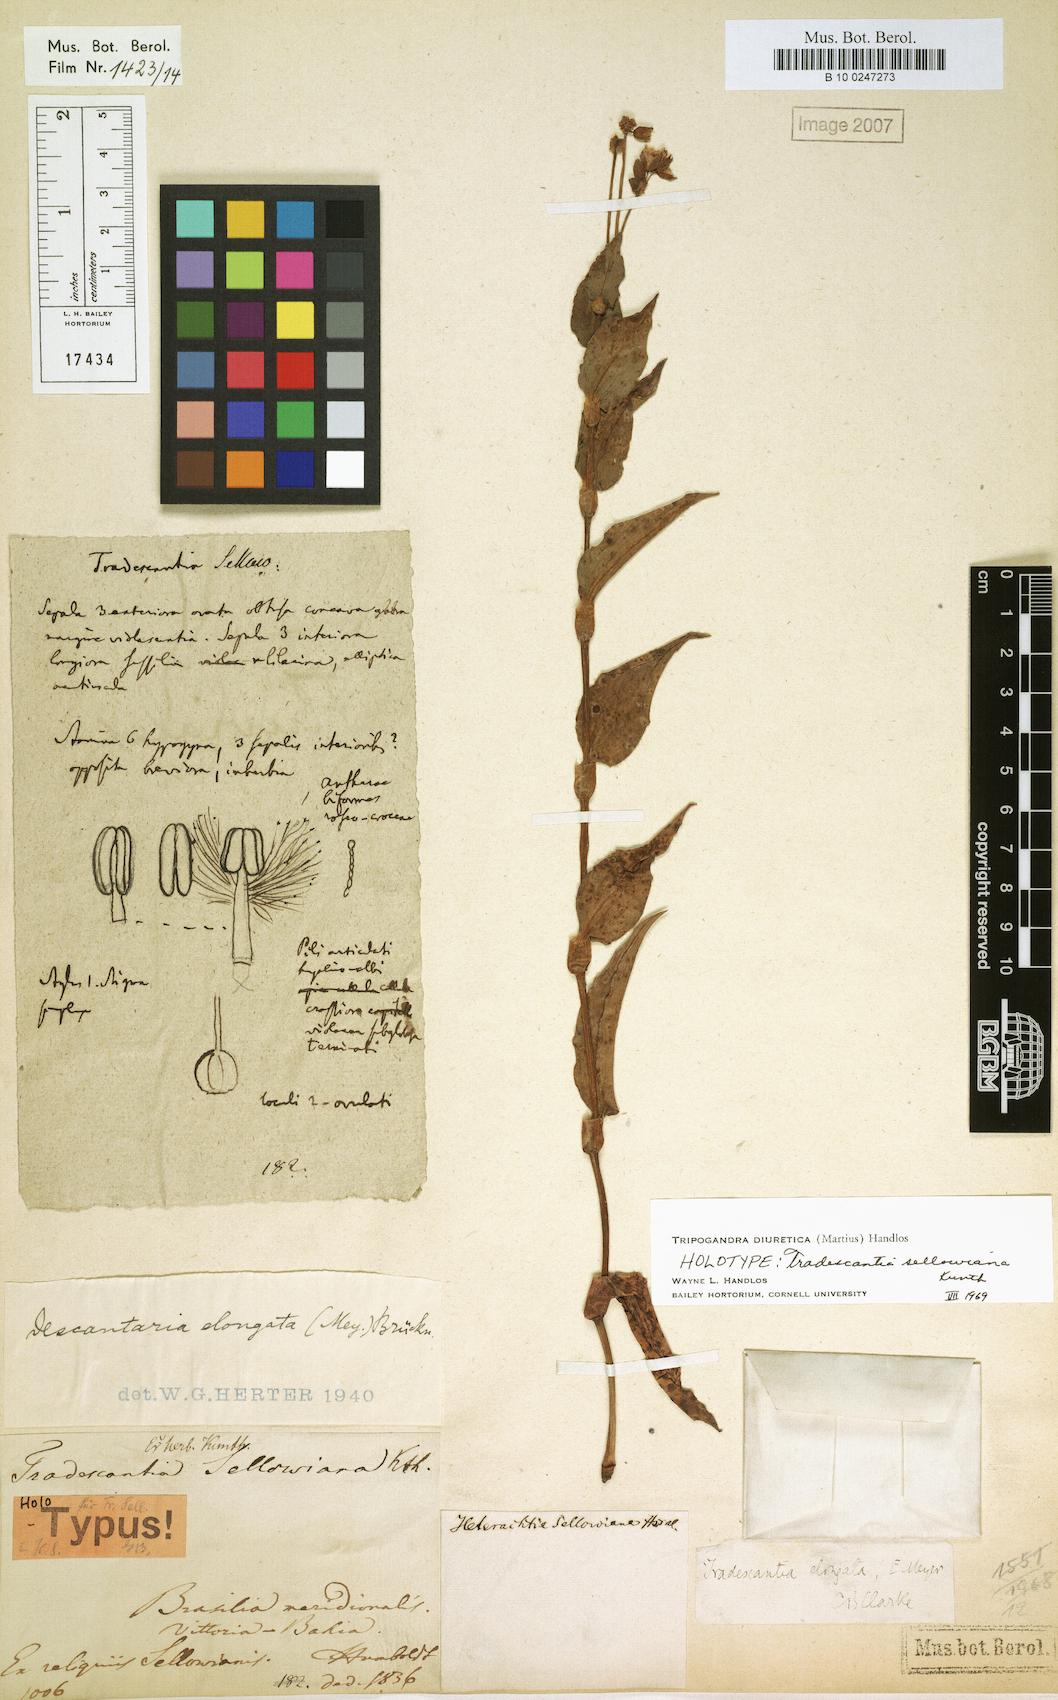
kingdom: Plantae
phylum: Tracheophyta
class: Liliopsida
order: Commelinales
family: Commelinaceae
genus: Callisia
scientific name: Callisia diuretica
